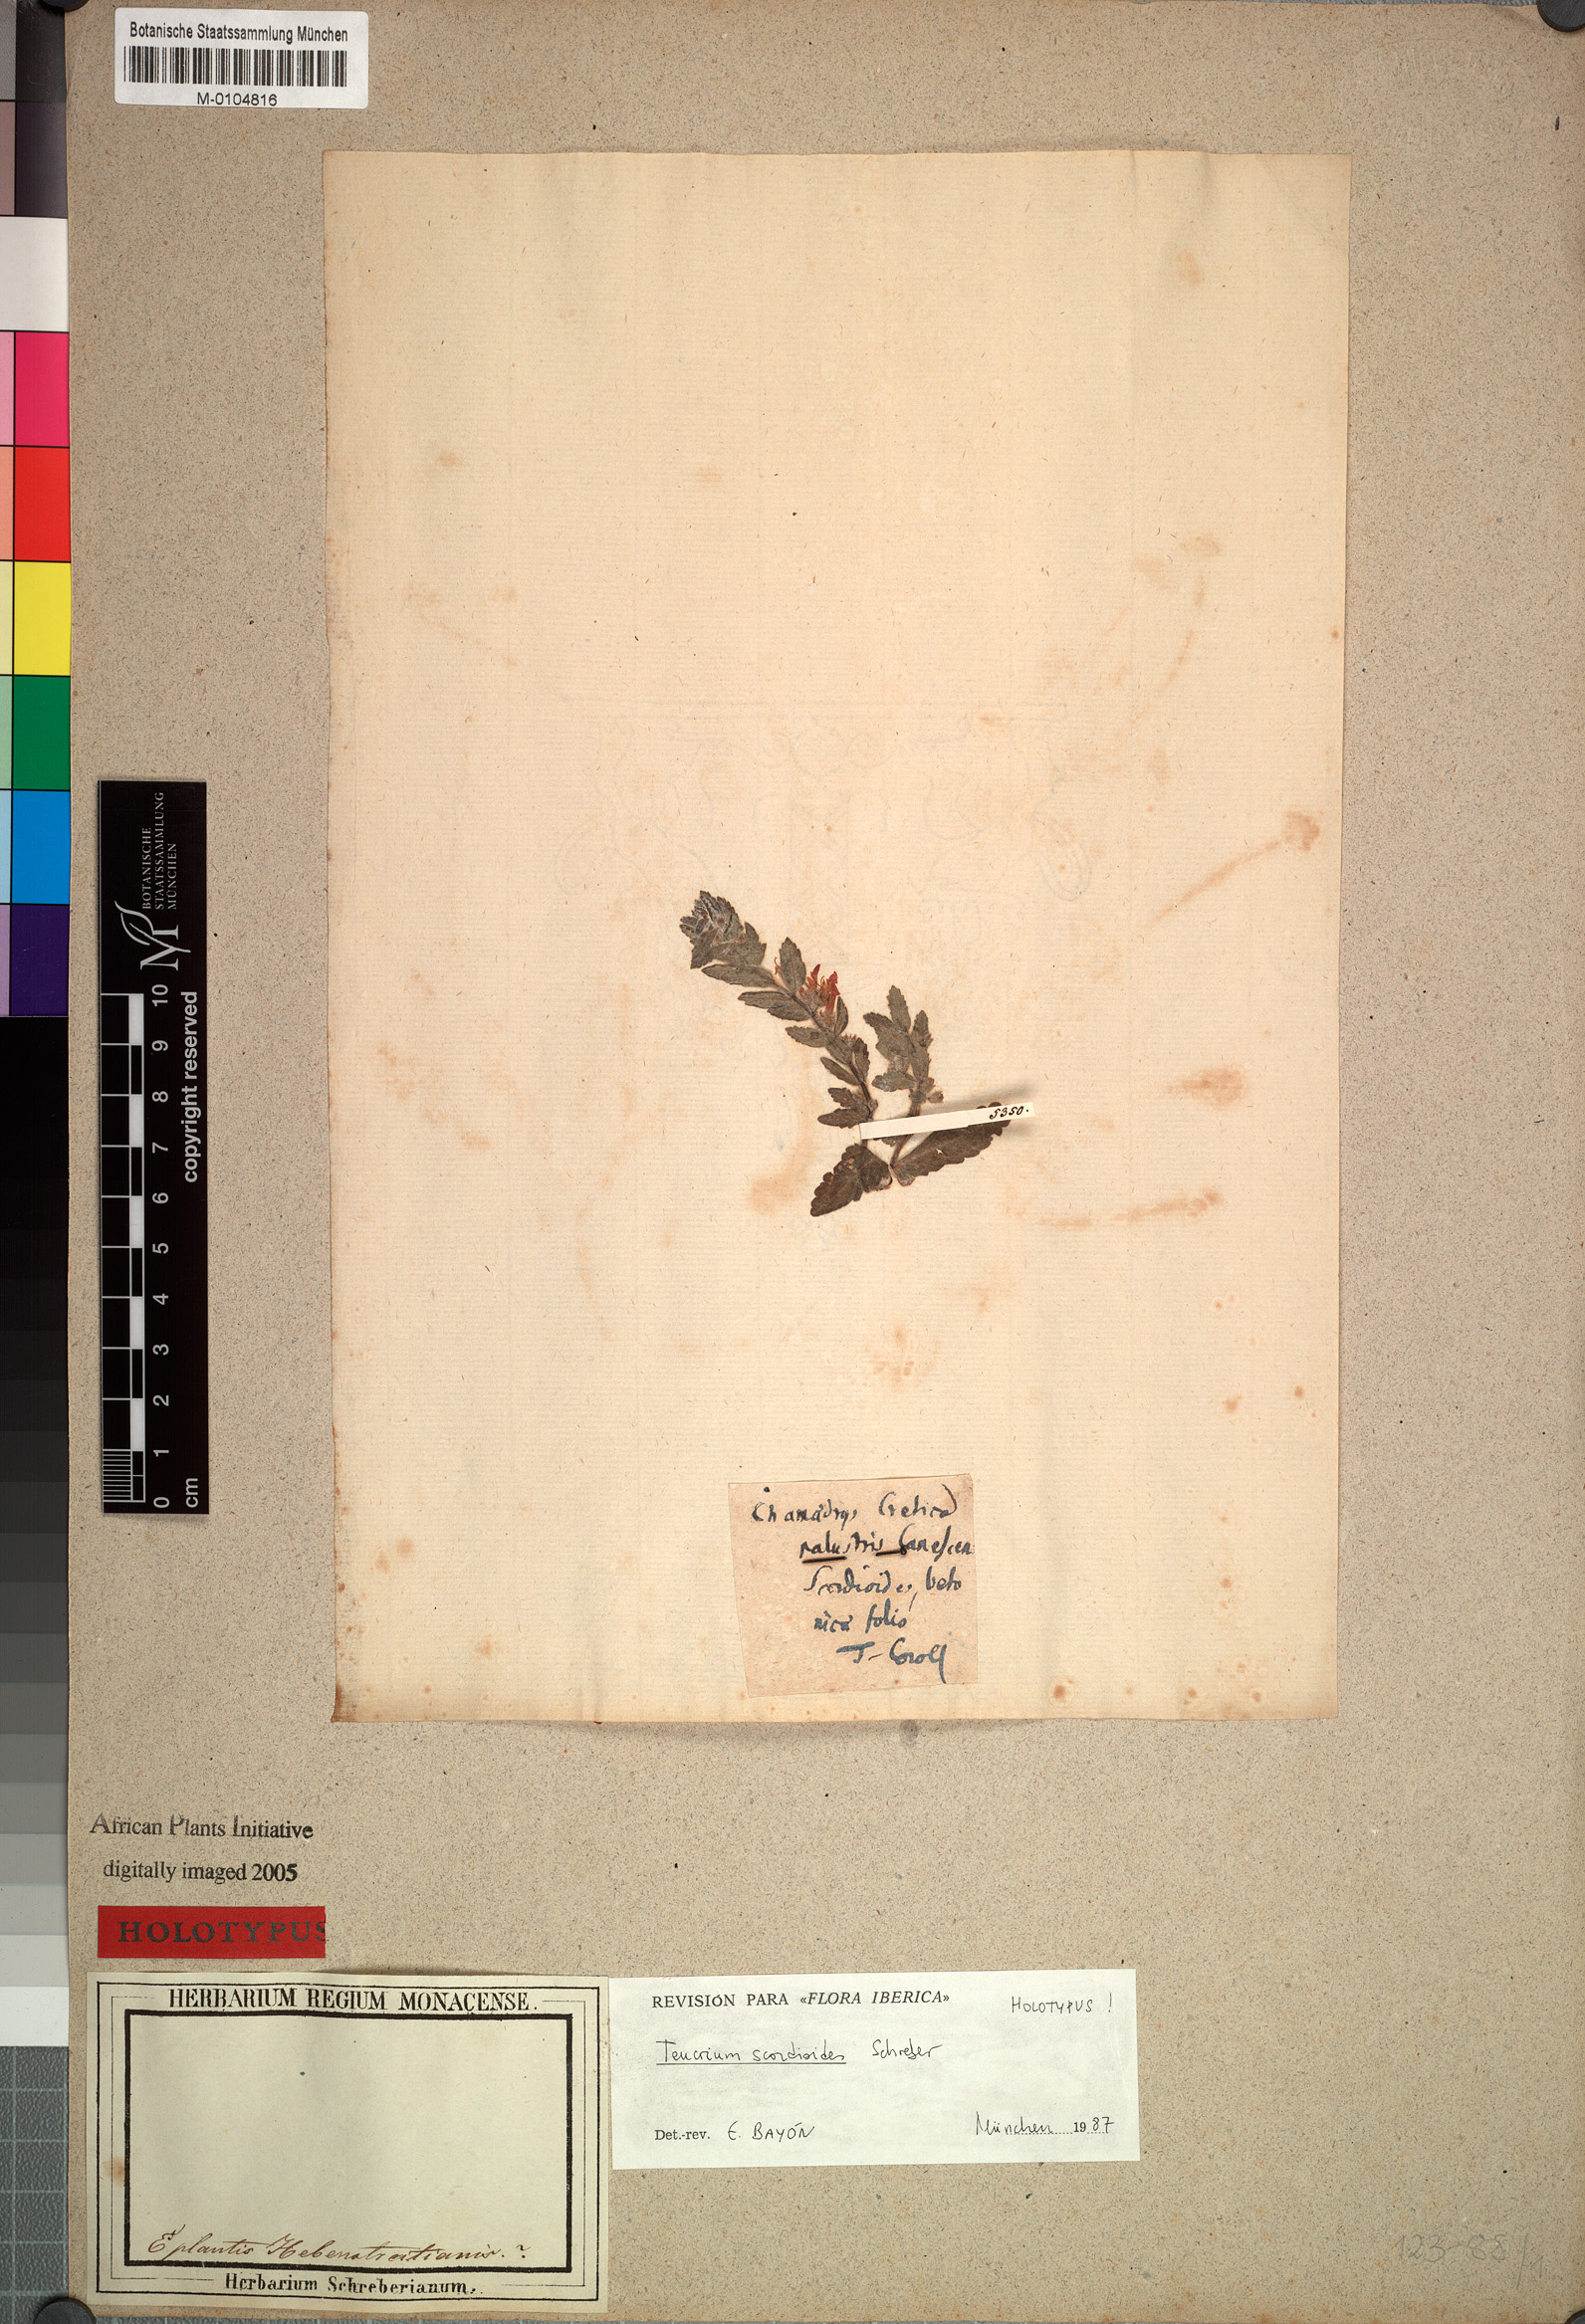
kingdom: Plantae
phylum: Tracheophyta
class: Magnoliopsida
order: Lamiales
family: Lamiaceae
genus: Teucrium
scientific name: Teucrium scordium
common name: Water germander
